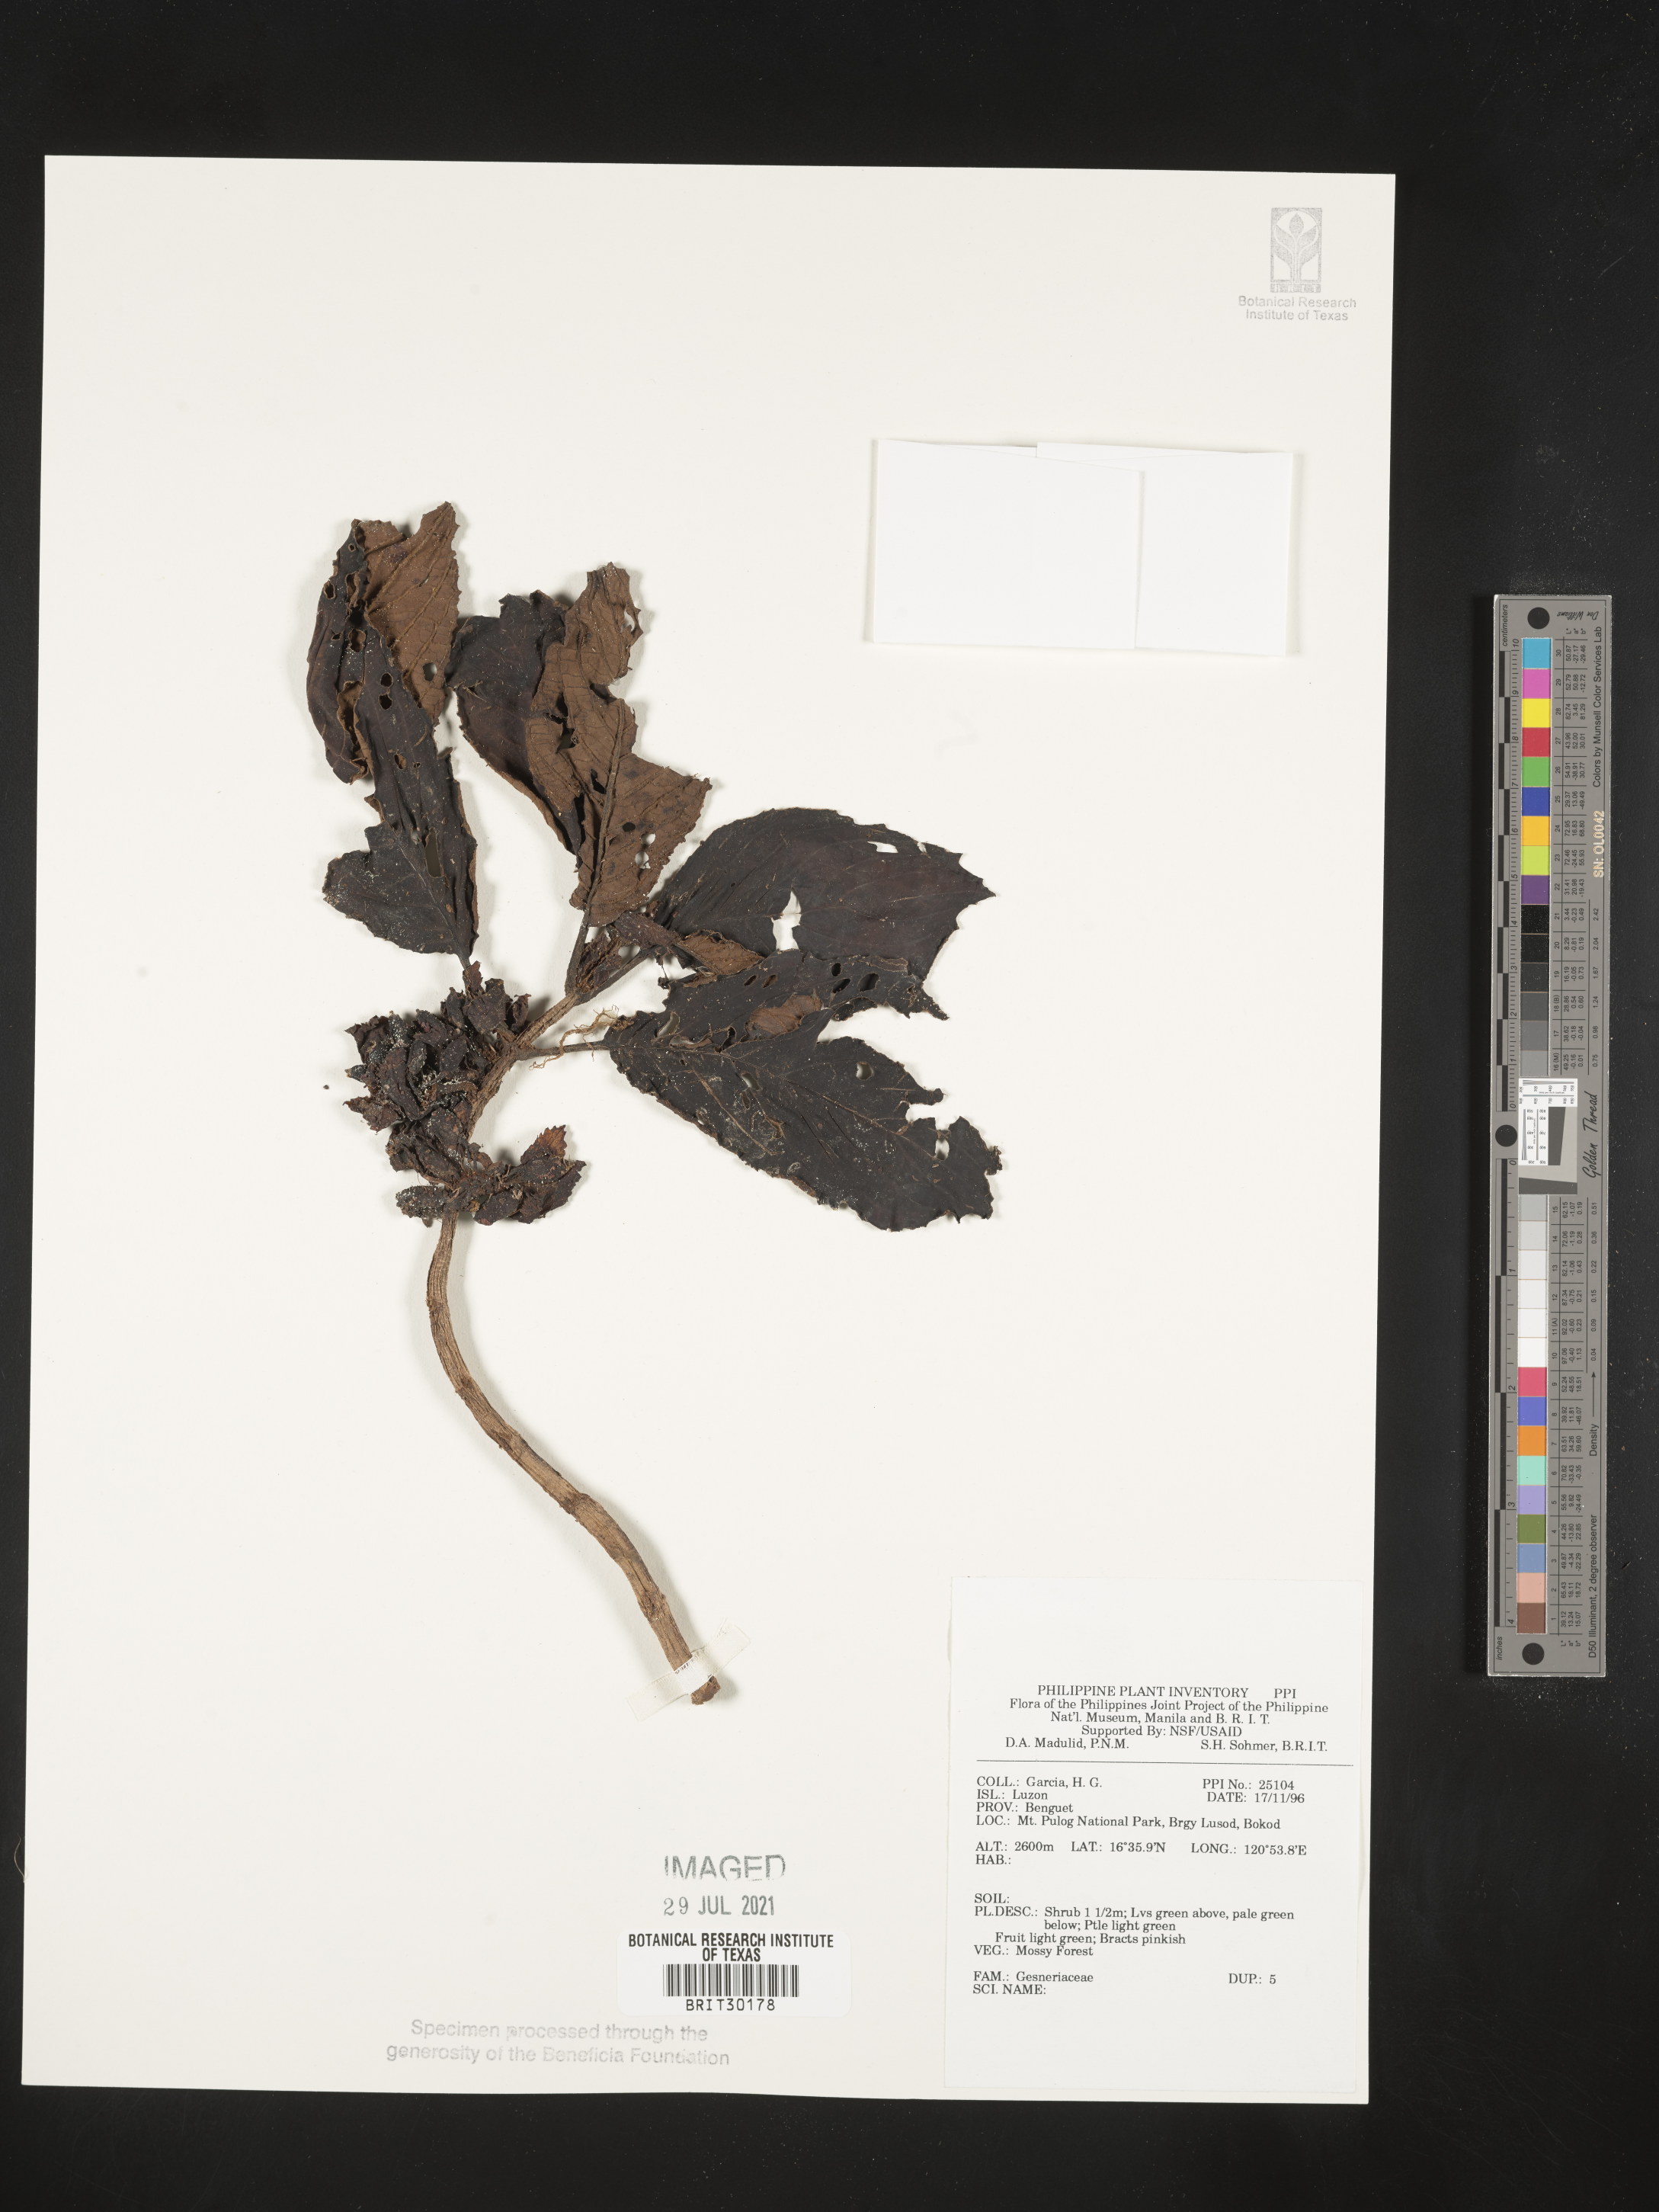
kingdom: Plantae
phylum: Tracheophyta
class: Magnoliopsida
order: Lamiales
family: Gesneriaceae
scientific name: Gesneriaceae
